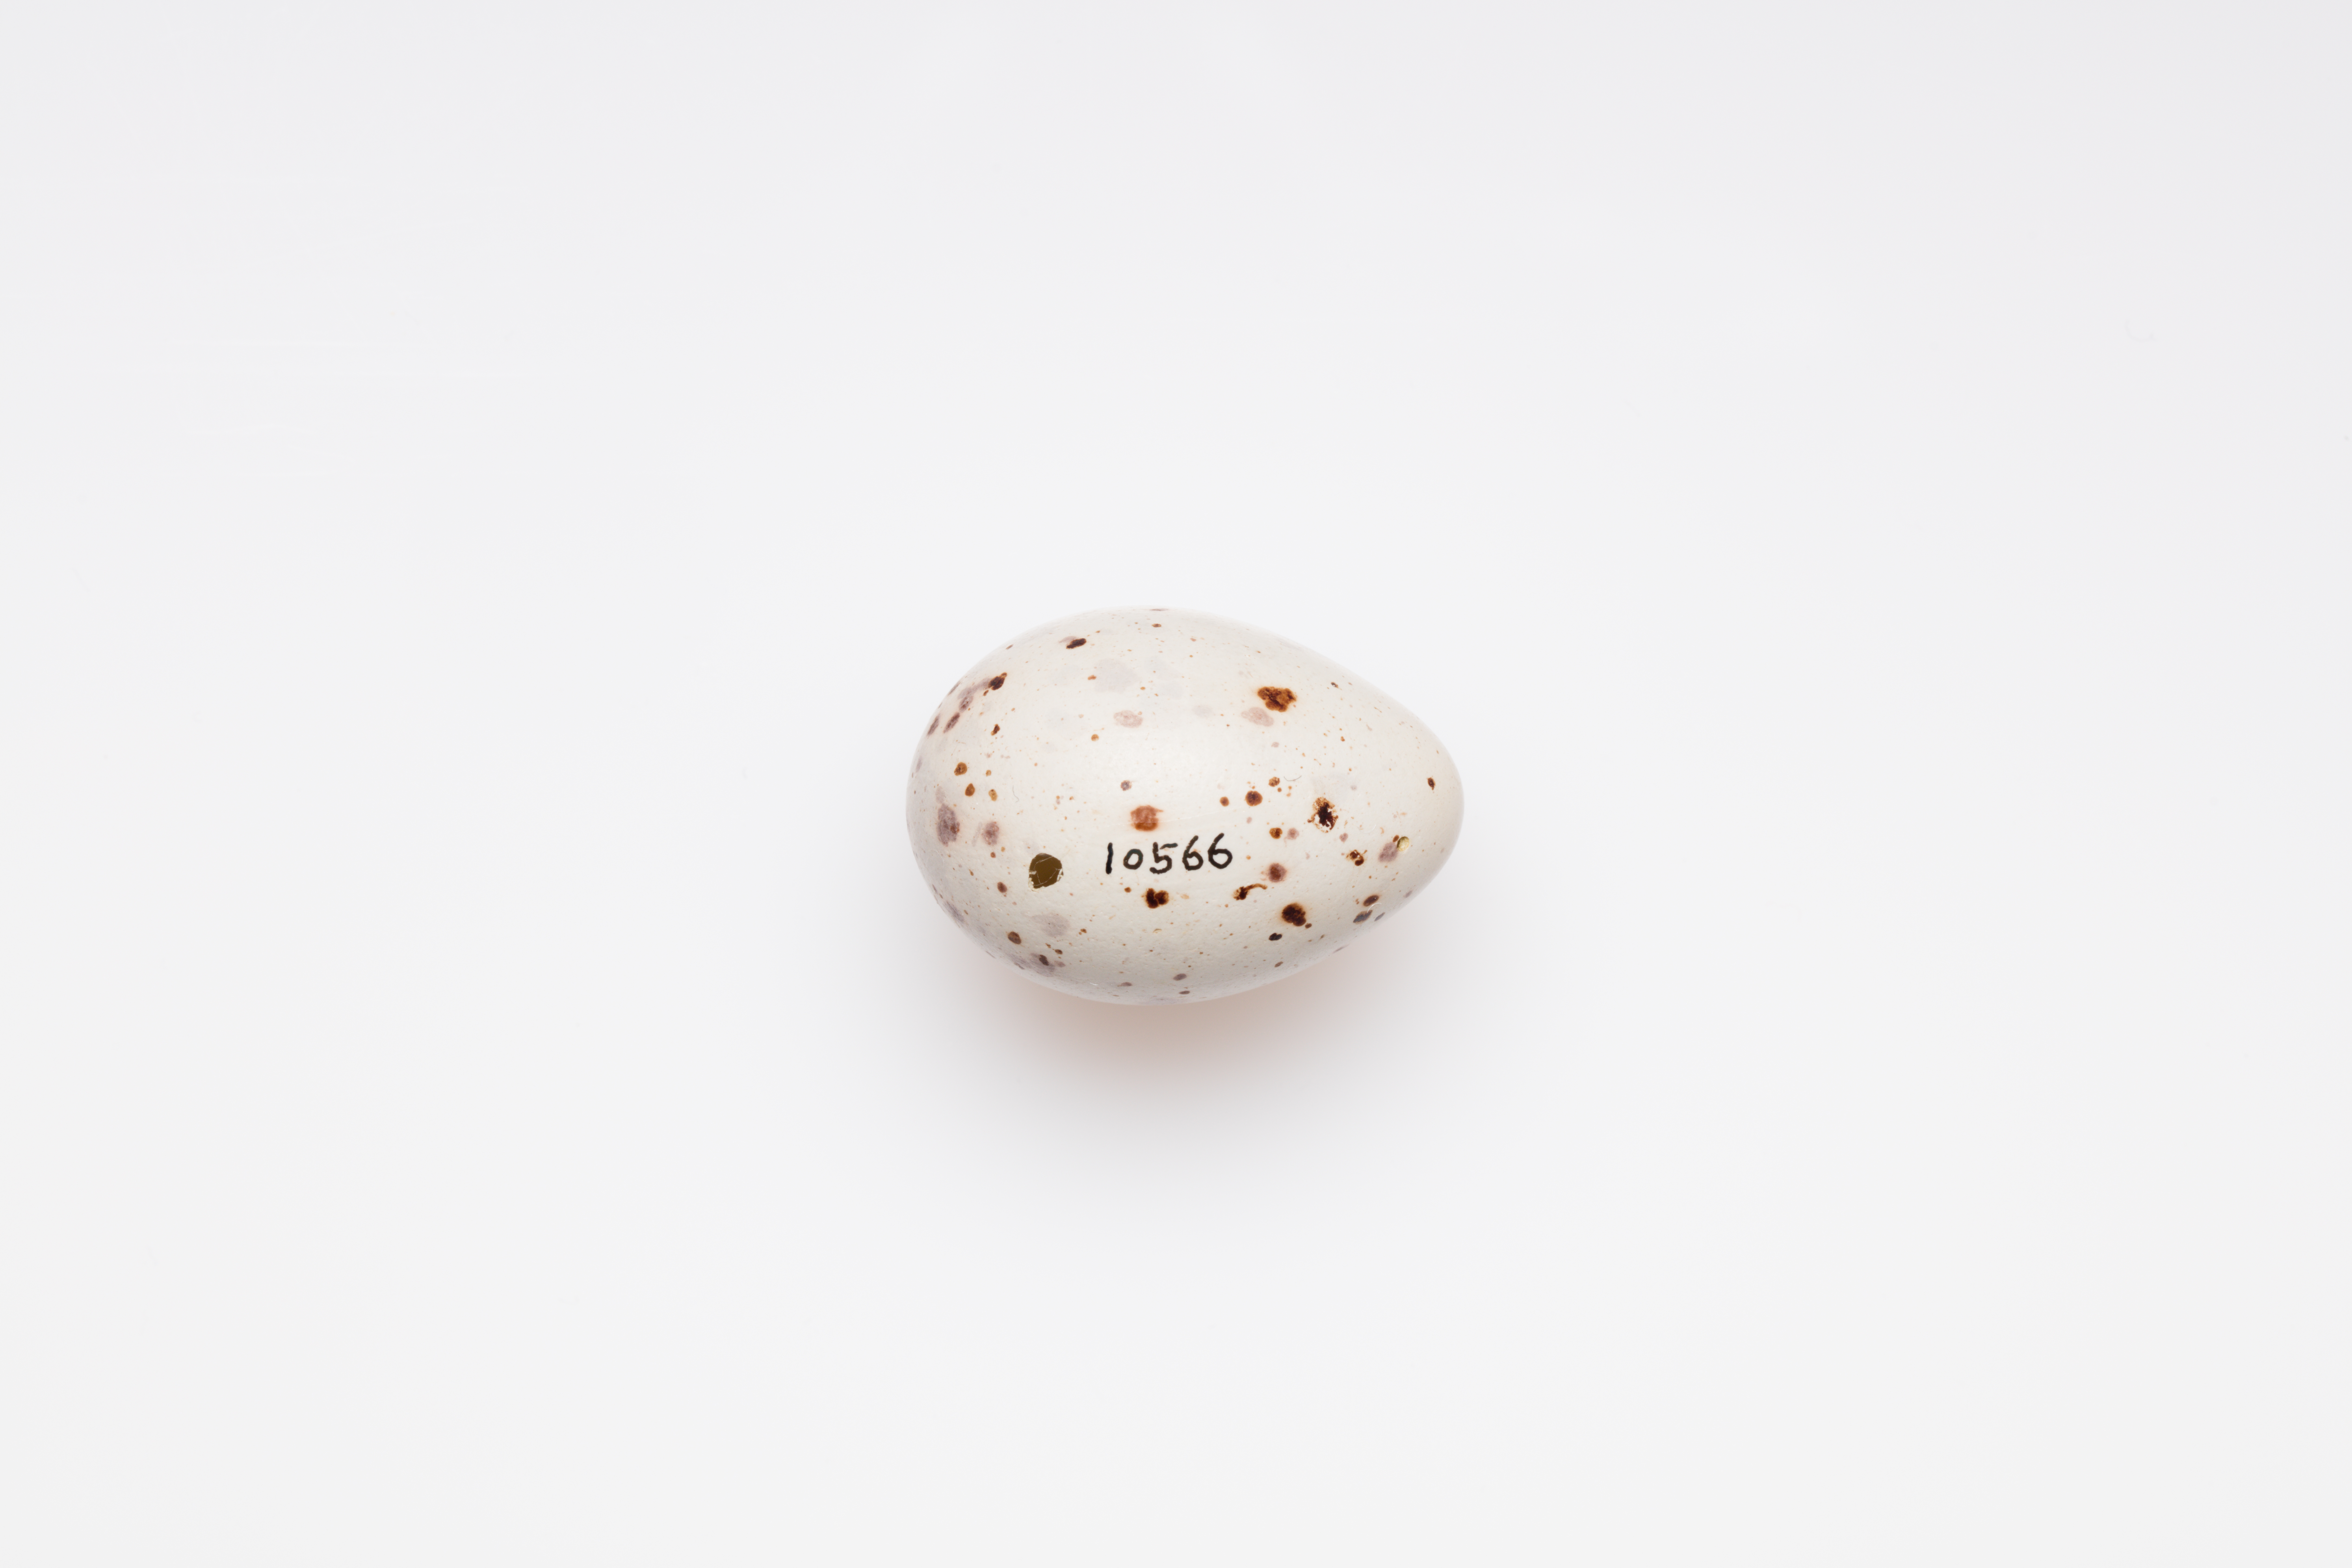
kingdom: Animalia
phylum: Chordata
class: Aves
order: Passeriformes
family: Turdidae
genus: Turdus
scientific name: Turdus viscivorus
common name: Mistle thrush
